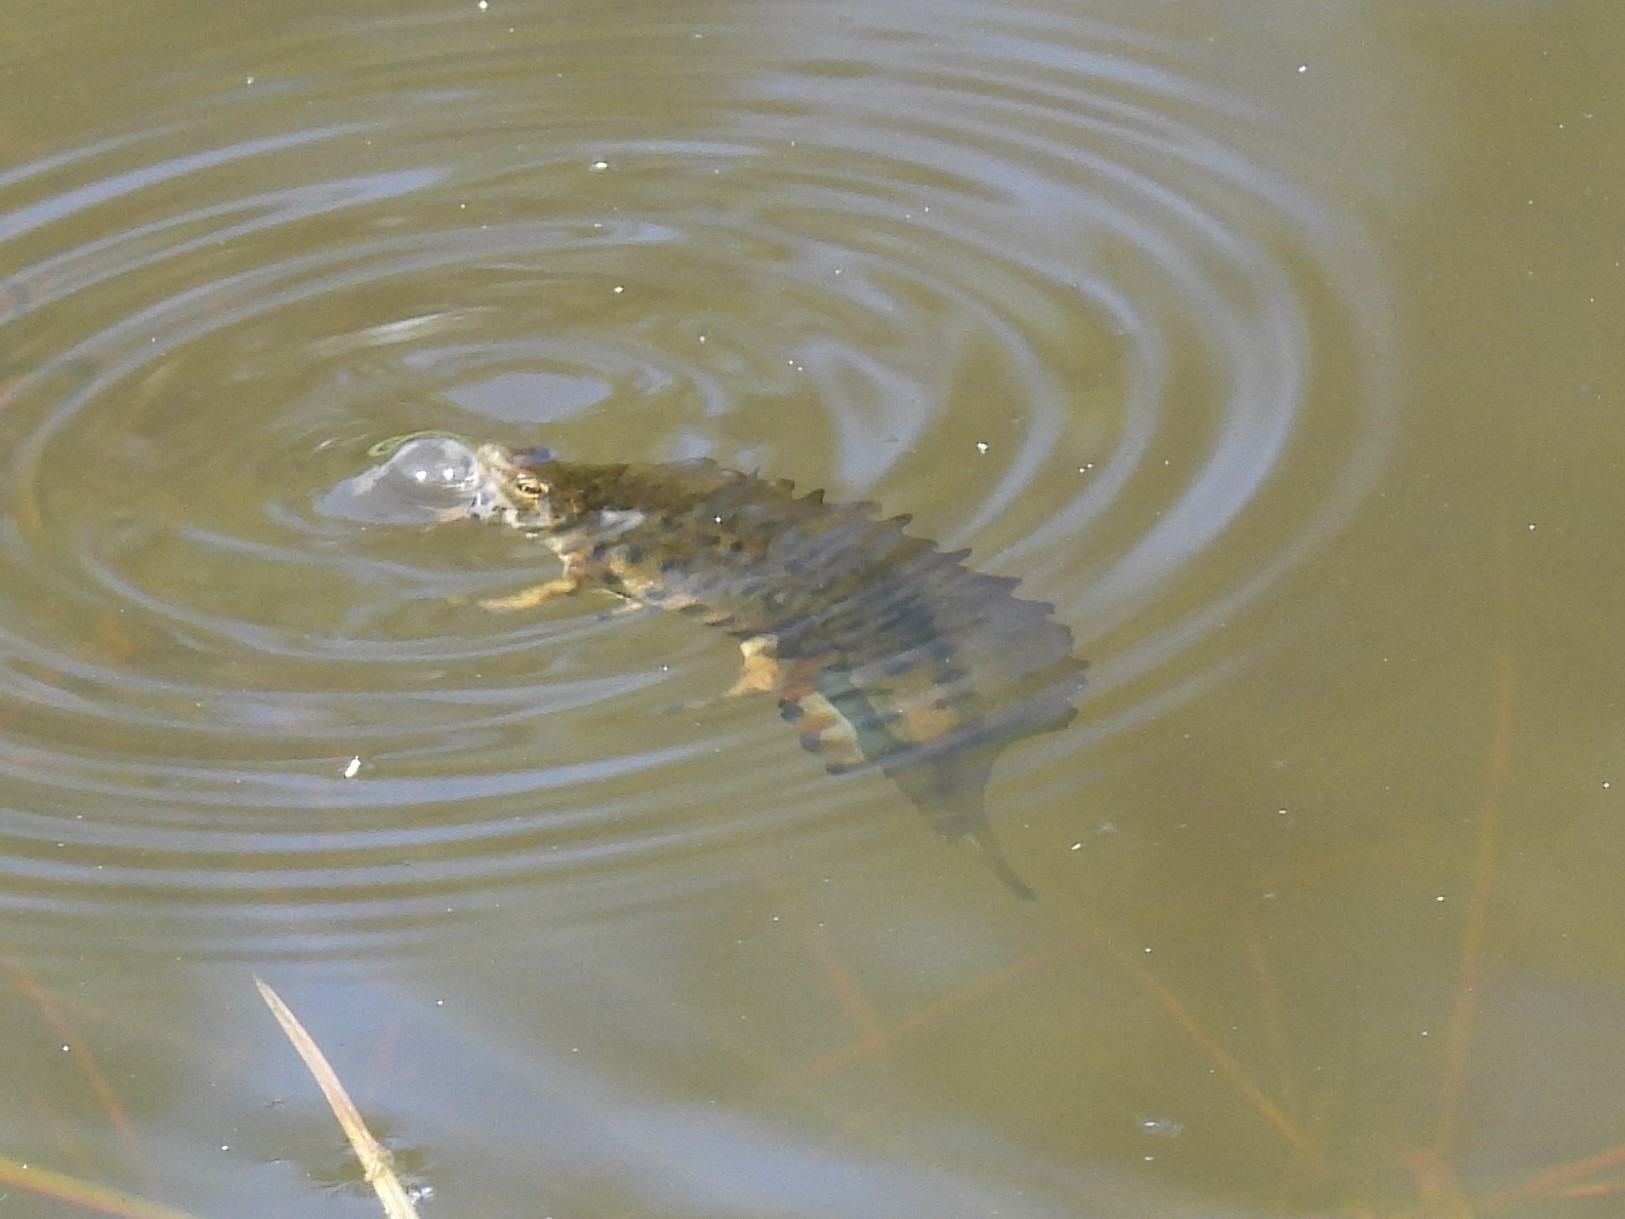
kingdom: Animalia
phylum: Chordata
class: Amphibia
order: Caudata
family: Salamandridae
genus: Lissotriton
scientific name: Lissotriton vulgaris
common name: Lille vandsalamander
